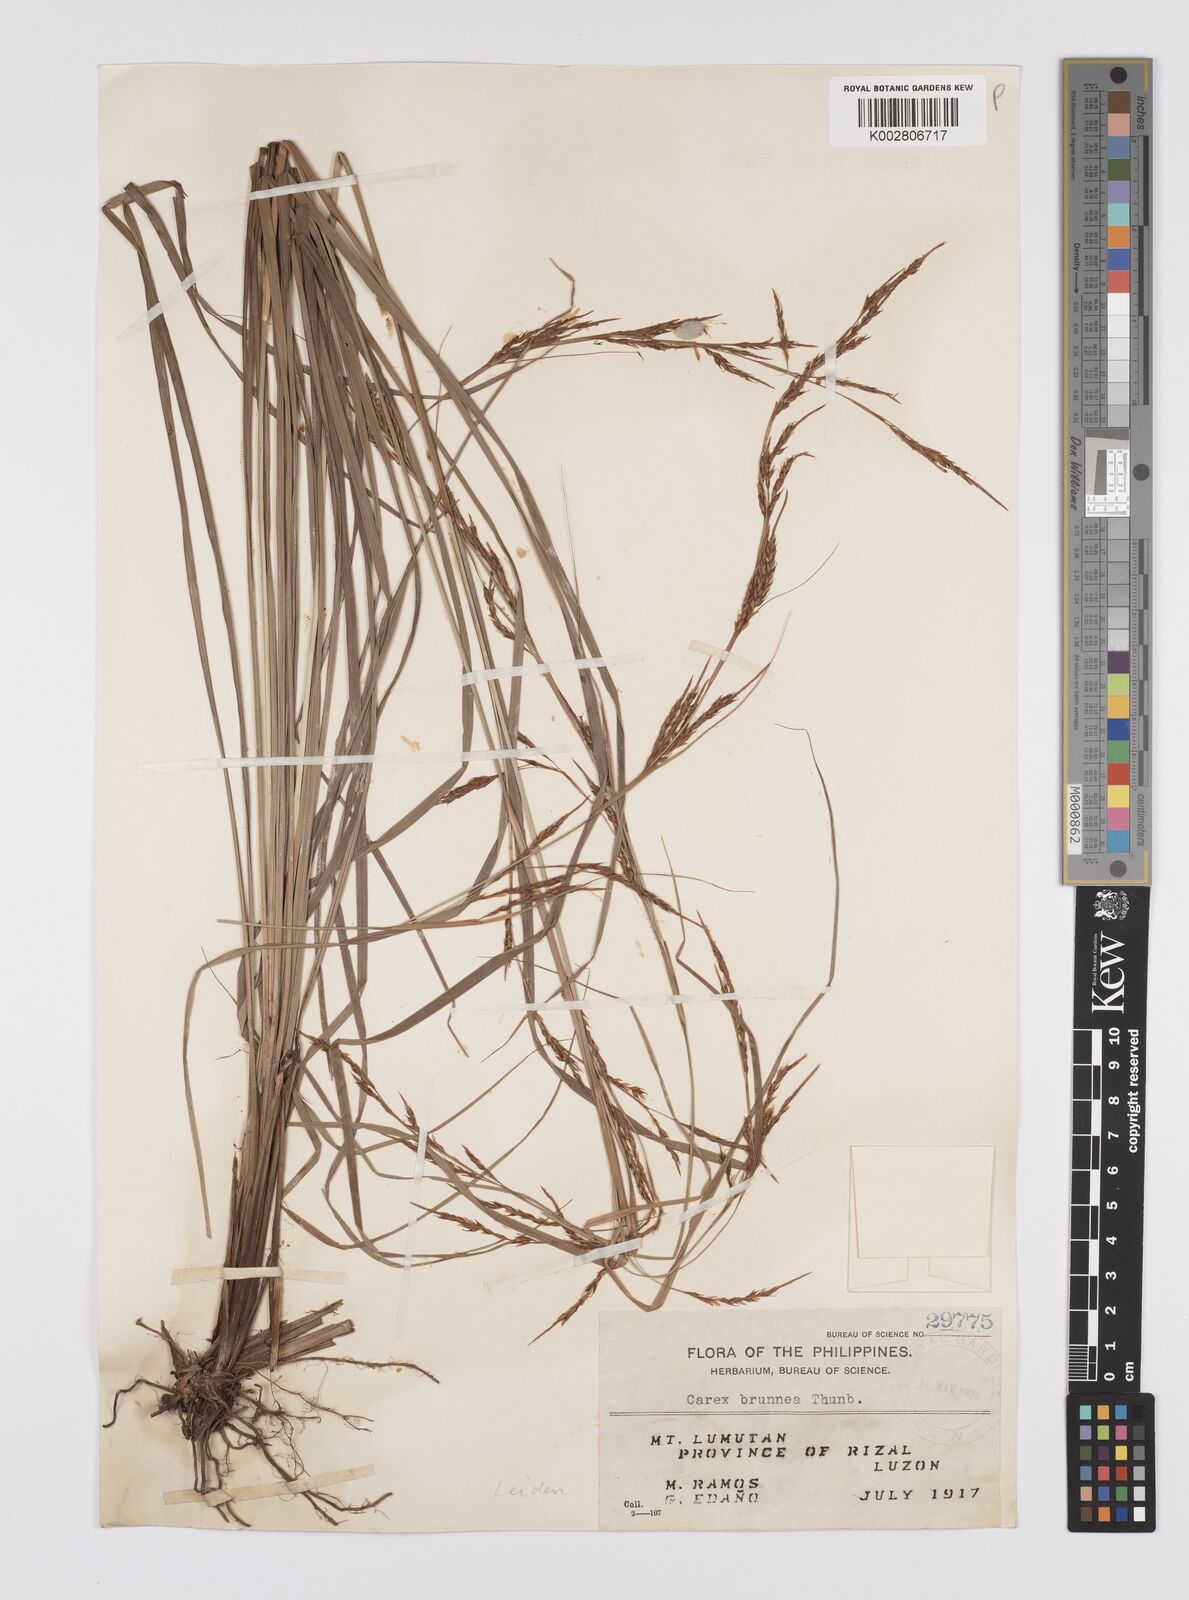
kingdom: Plantae
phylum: Tracheophyta
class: Liliopsida
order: Poales
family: Cyperaceae
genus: Carex
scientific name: Carex brunnea
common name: Greater brown sedge
